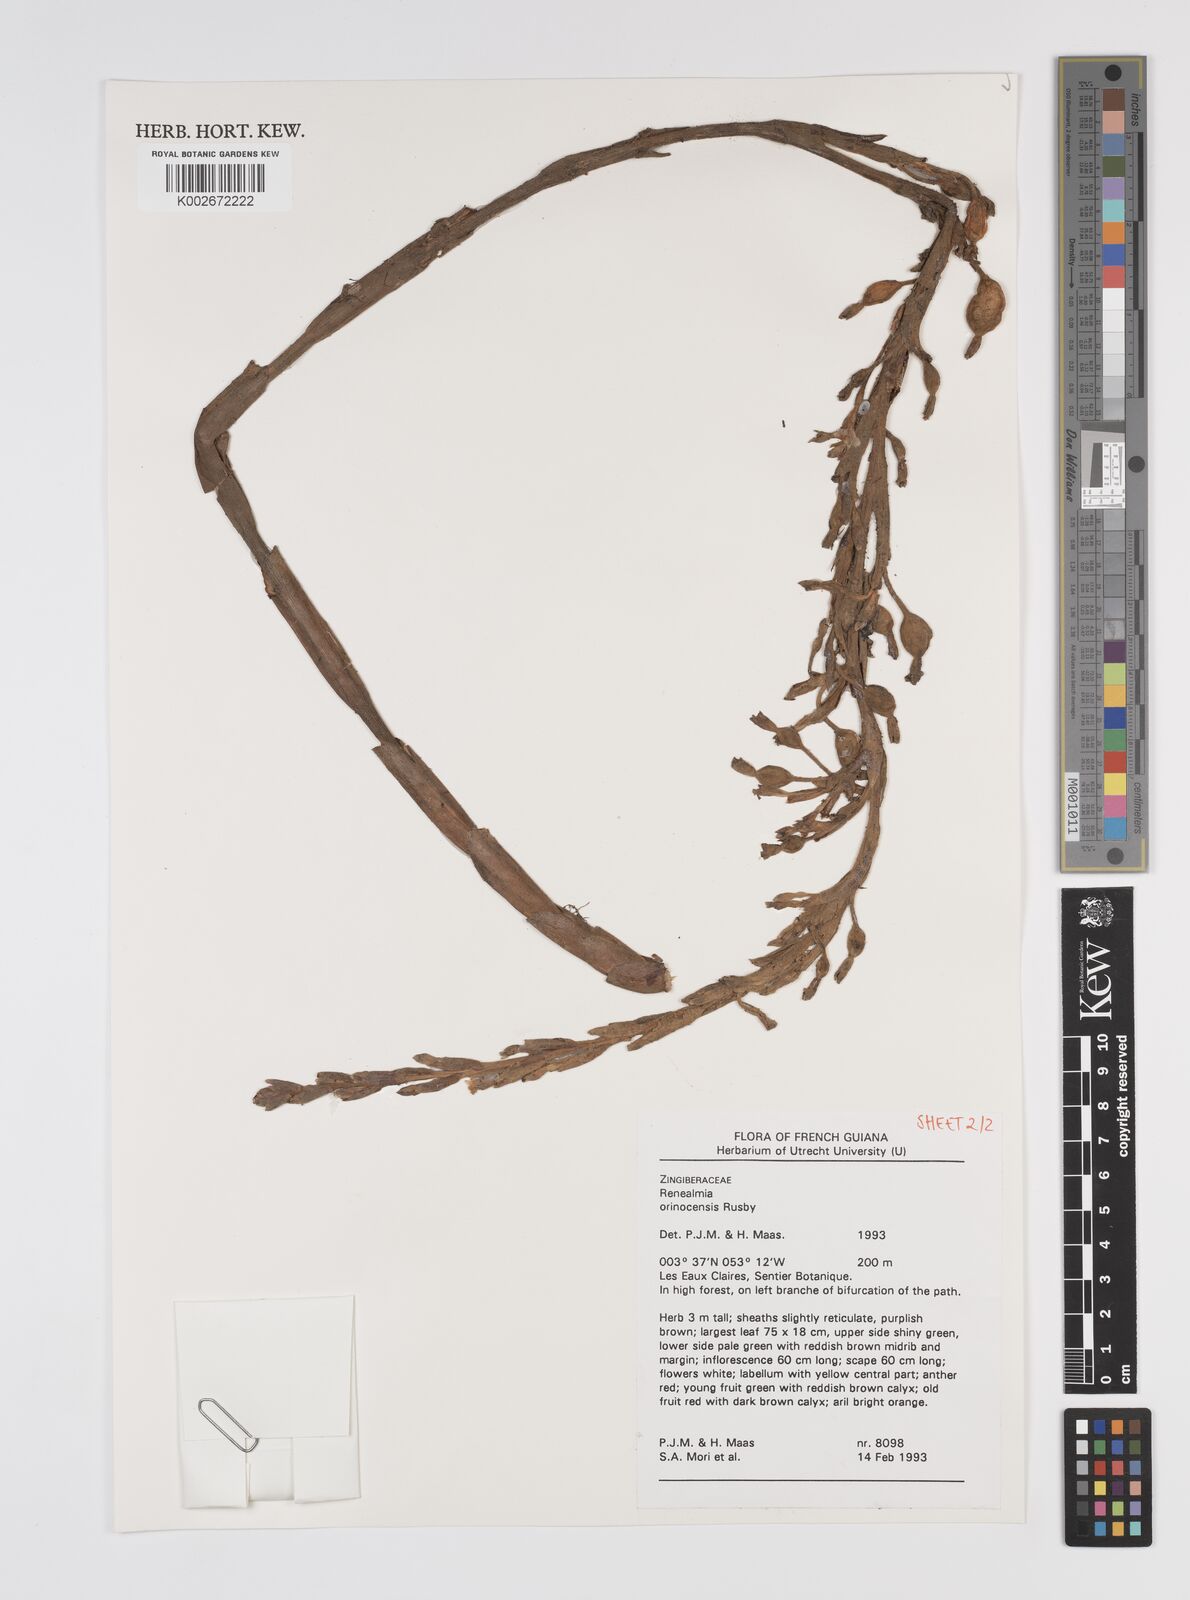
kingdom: Plantae
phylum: Tracheophyta
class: Liliopsida
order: Zingiberales
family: Zingiberaceae
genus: Renealmia
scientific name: Renealmia orinocensis
